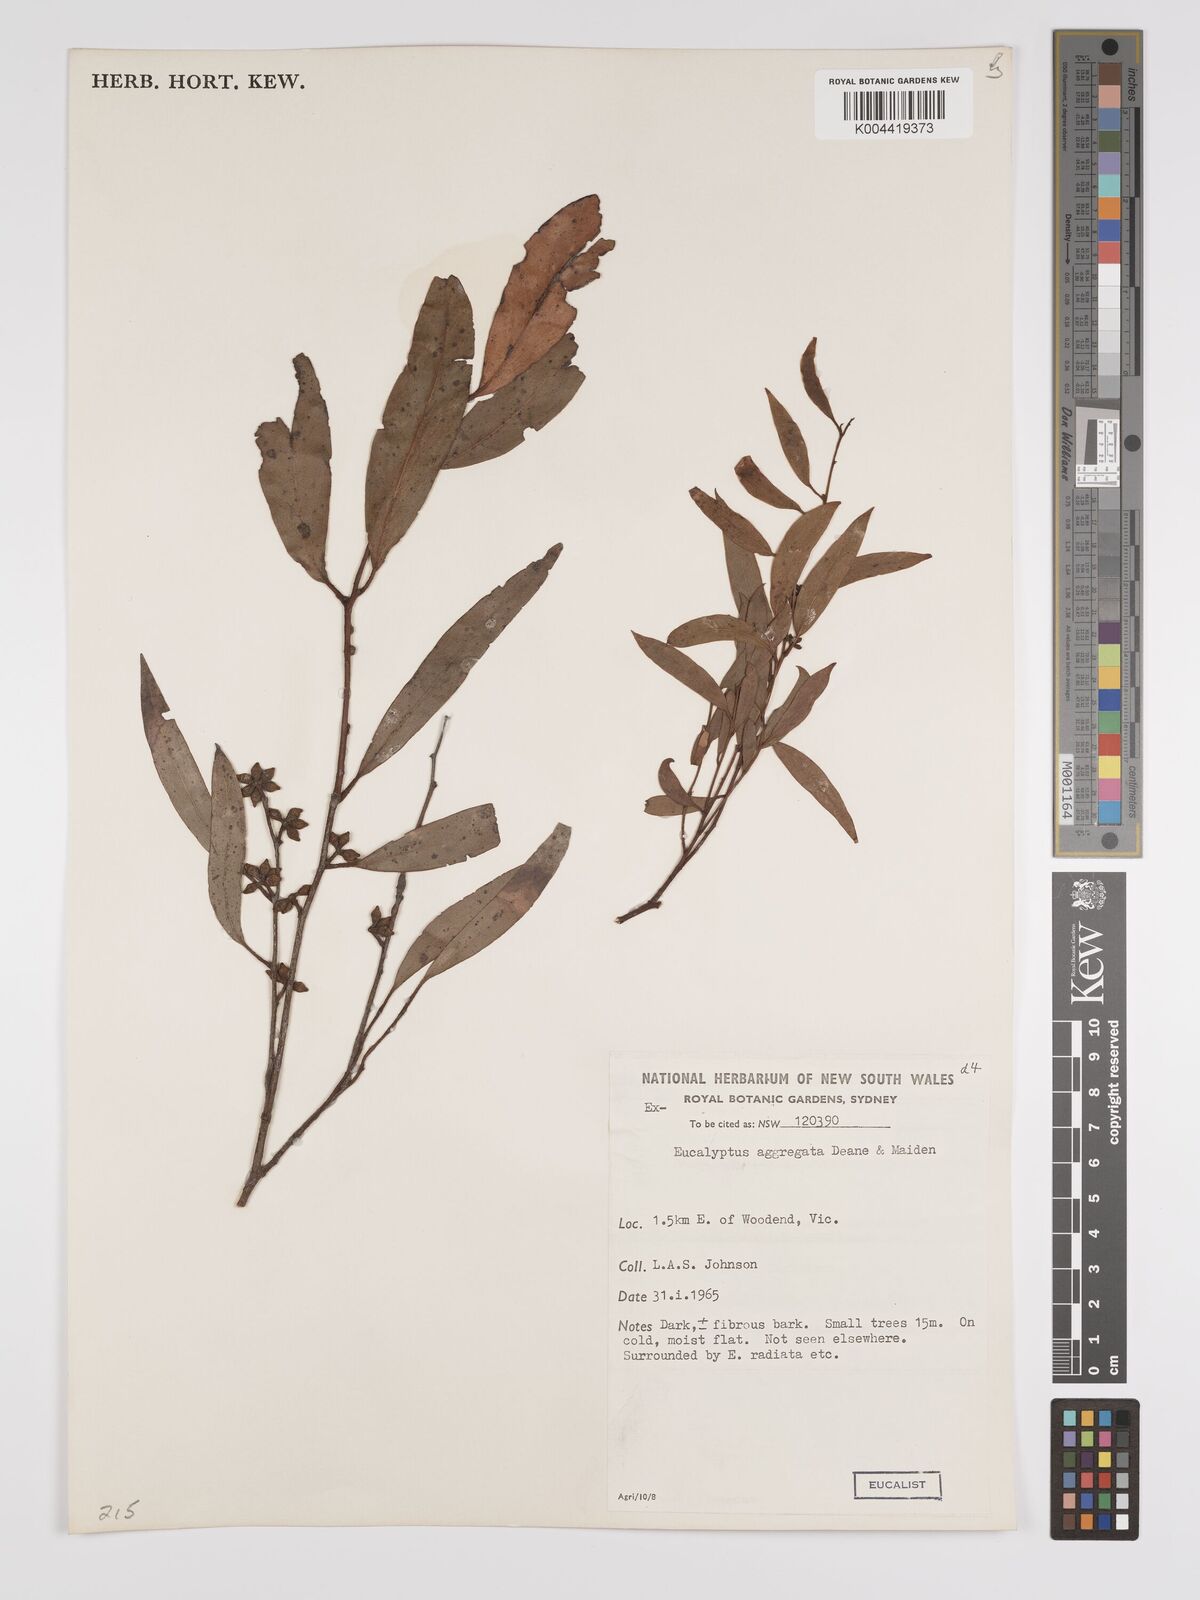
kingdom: Plantae
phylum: Tracheophyta
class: Magnoliopsida
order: Myrtales
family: Myrtaceae
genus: Eucalyptus
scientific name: Eucalyptus aggregata
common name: Black gum
